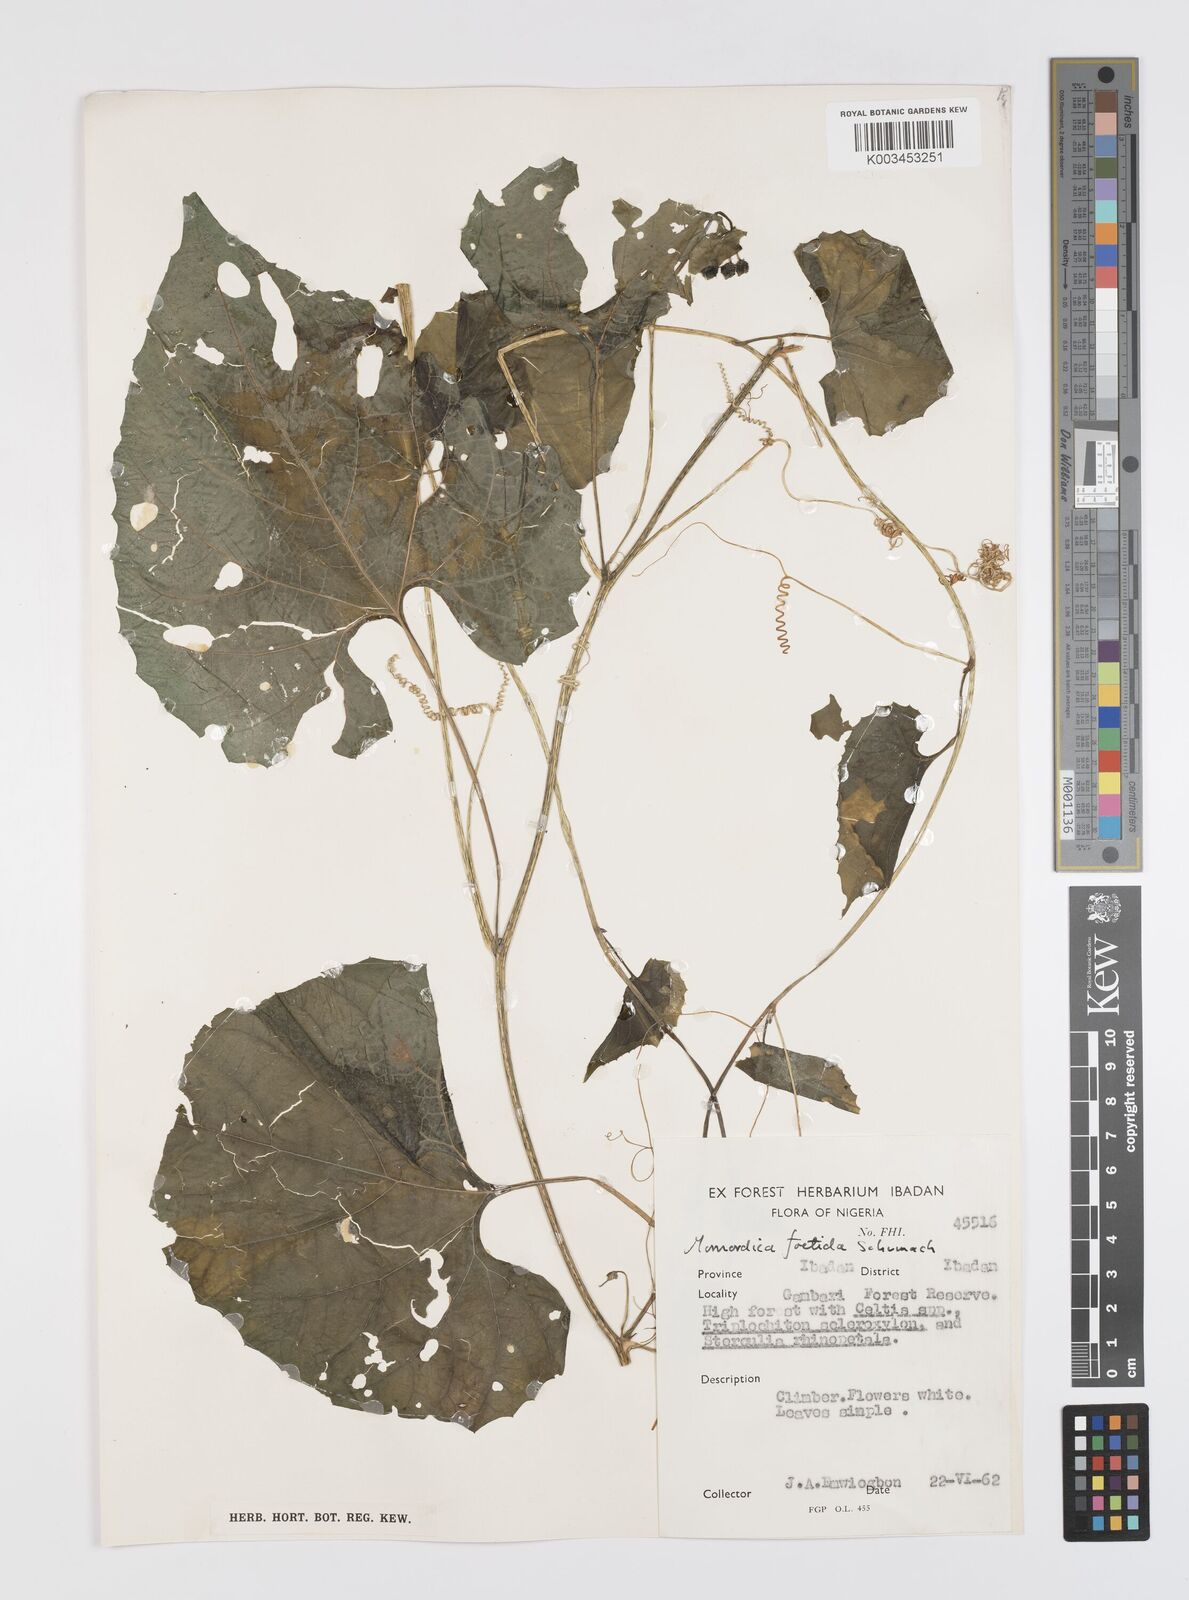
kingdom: Plantae
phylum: Tracheophyta
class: Magnoliopsida
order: Cucurbitales
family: Cucurbitaceae
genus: Momordica
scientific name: Momordica foetida
